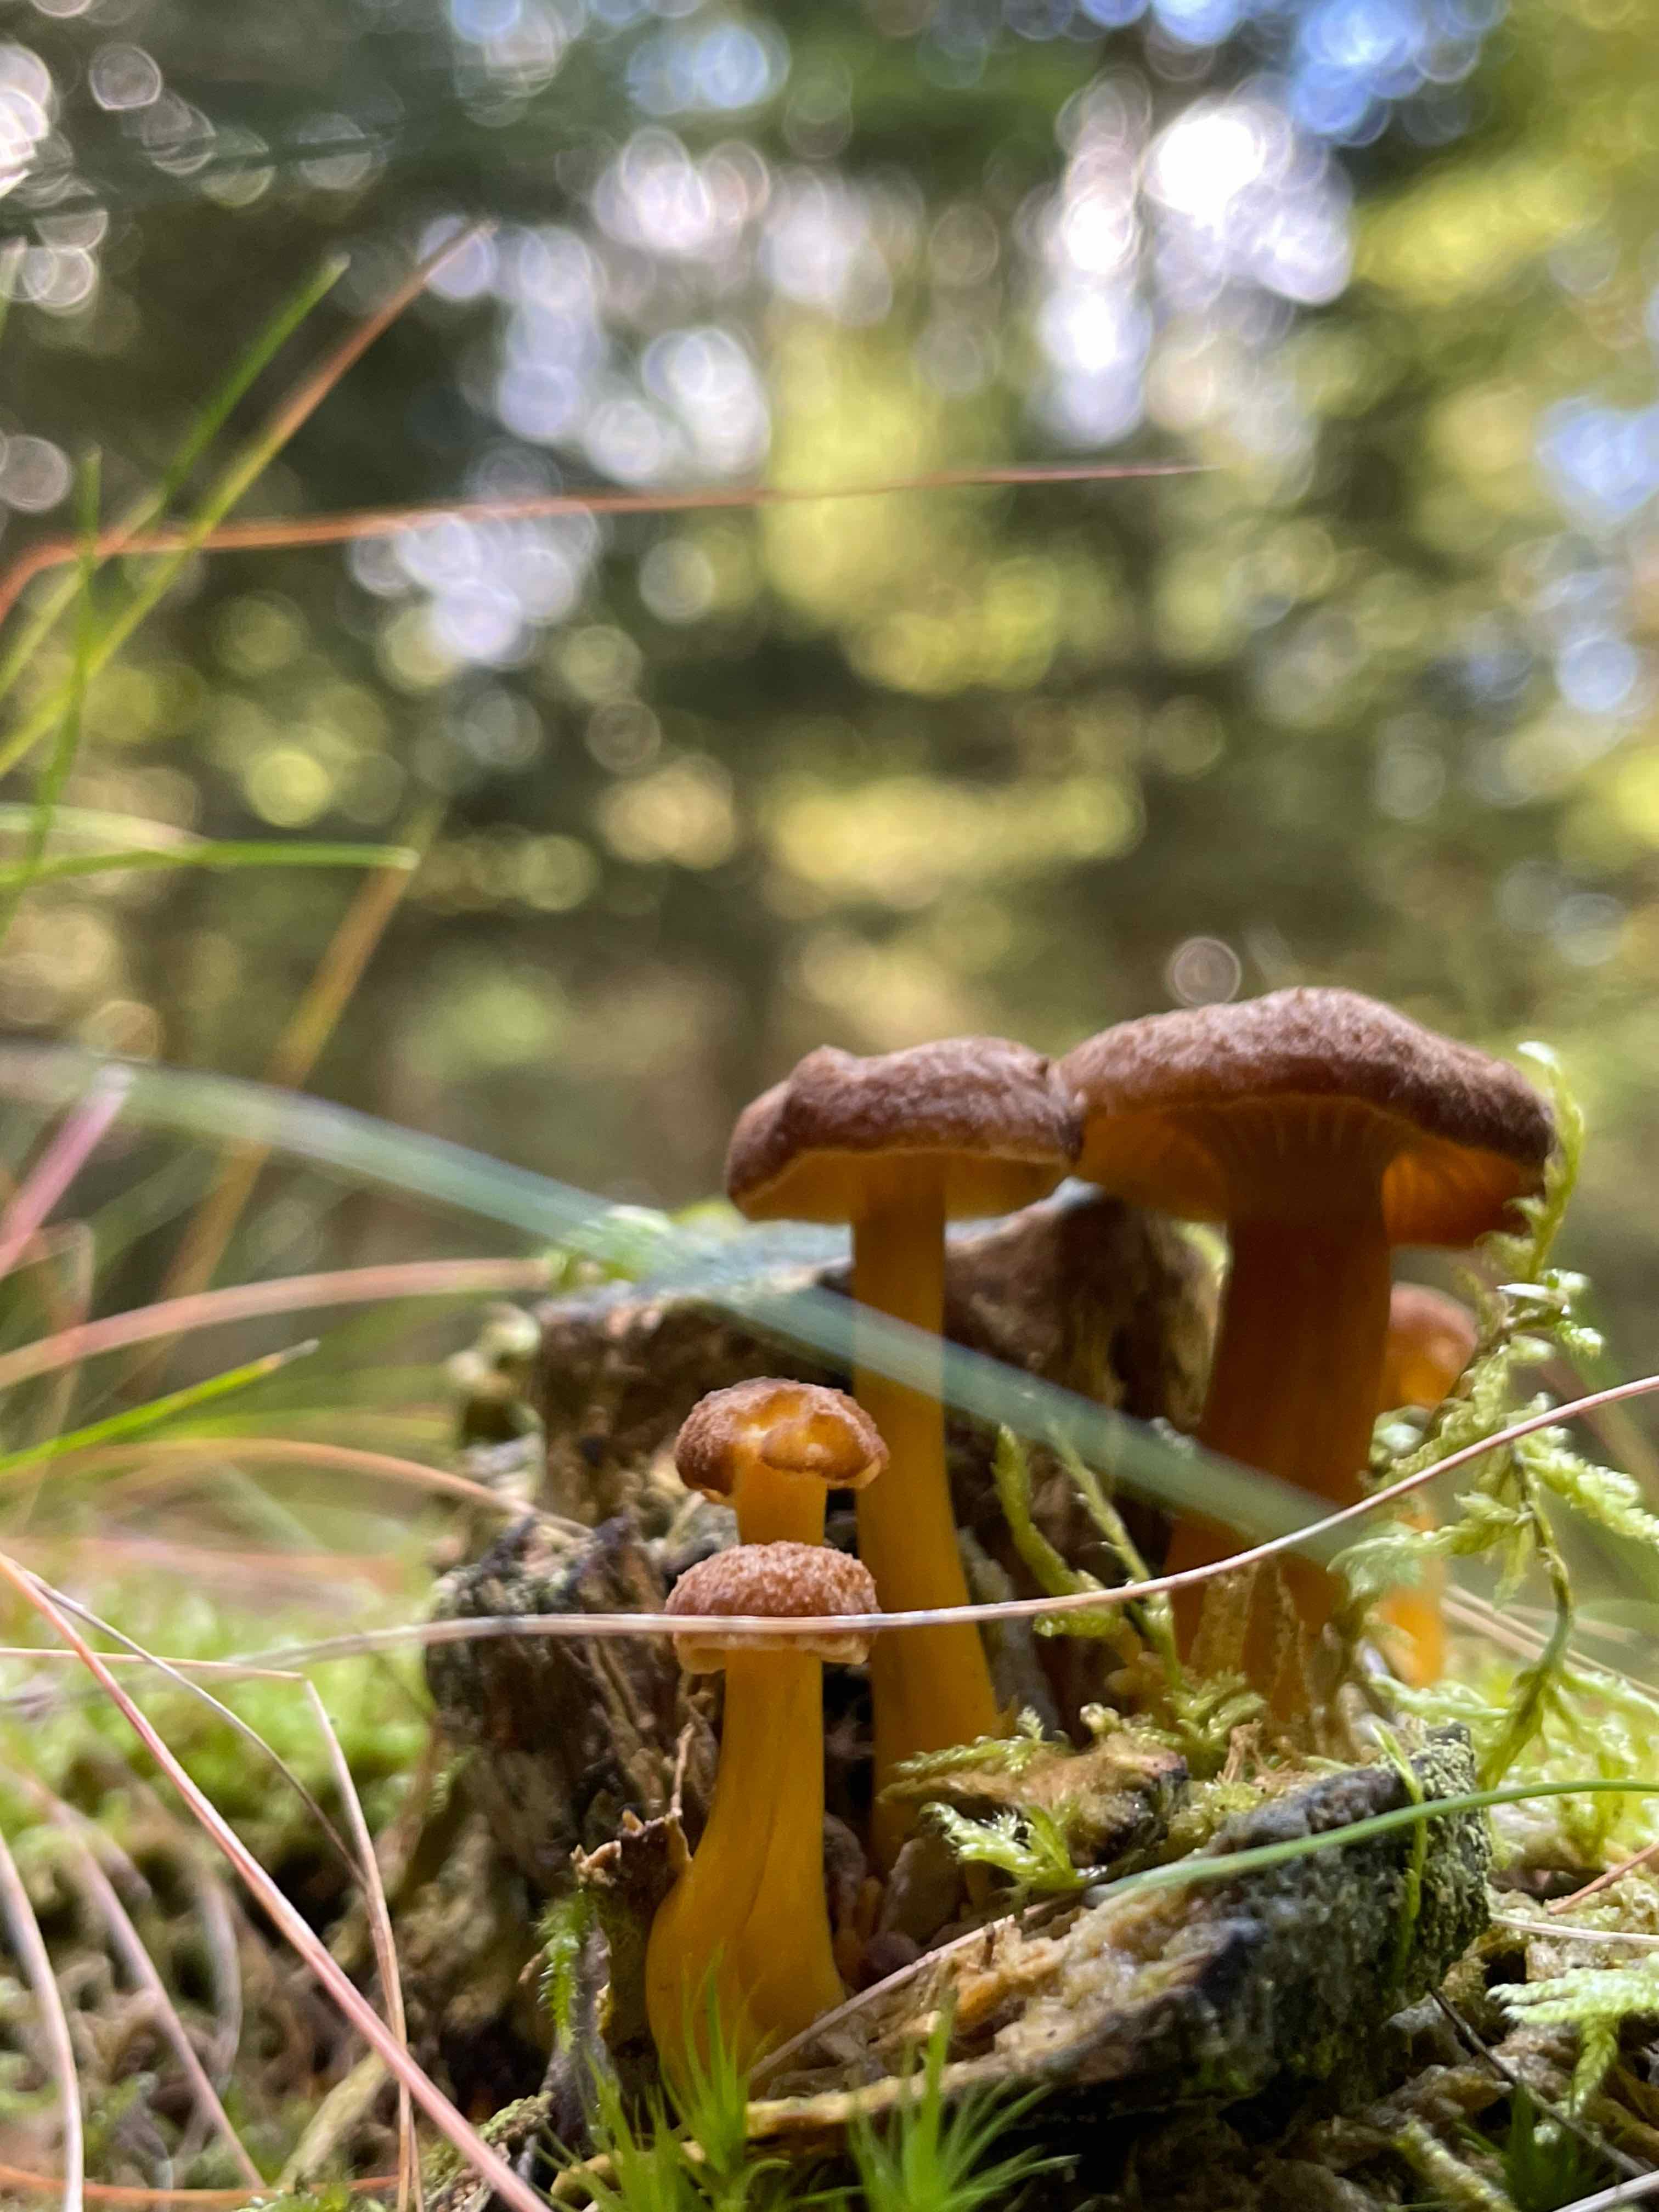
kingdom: Fungi
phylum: Basidiomycota
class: Agaricomycetes
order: Cantharellales
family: Hydnaceae
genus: Craterellus
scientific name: Craterellus tubaeformis
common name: tragt-kantarel
